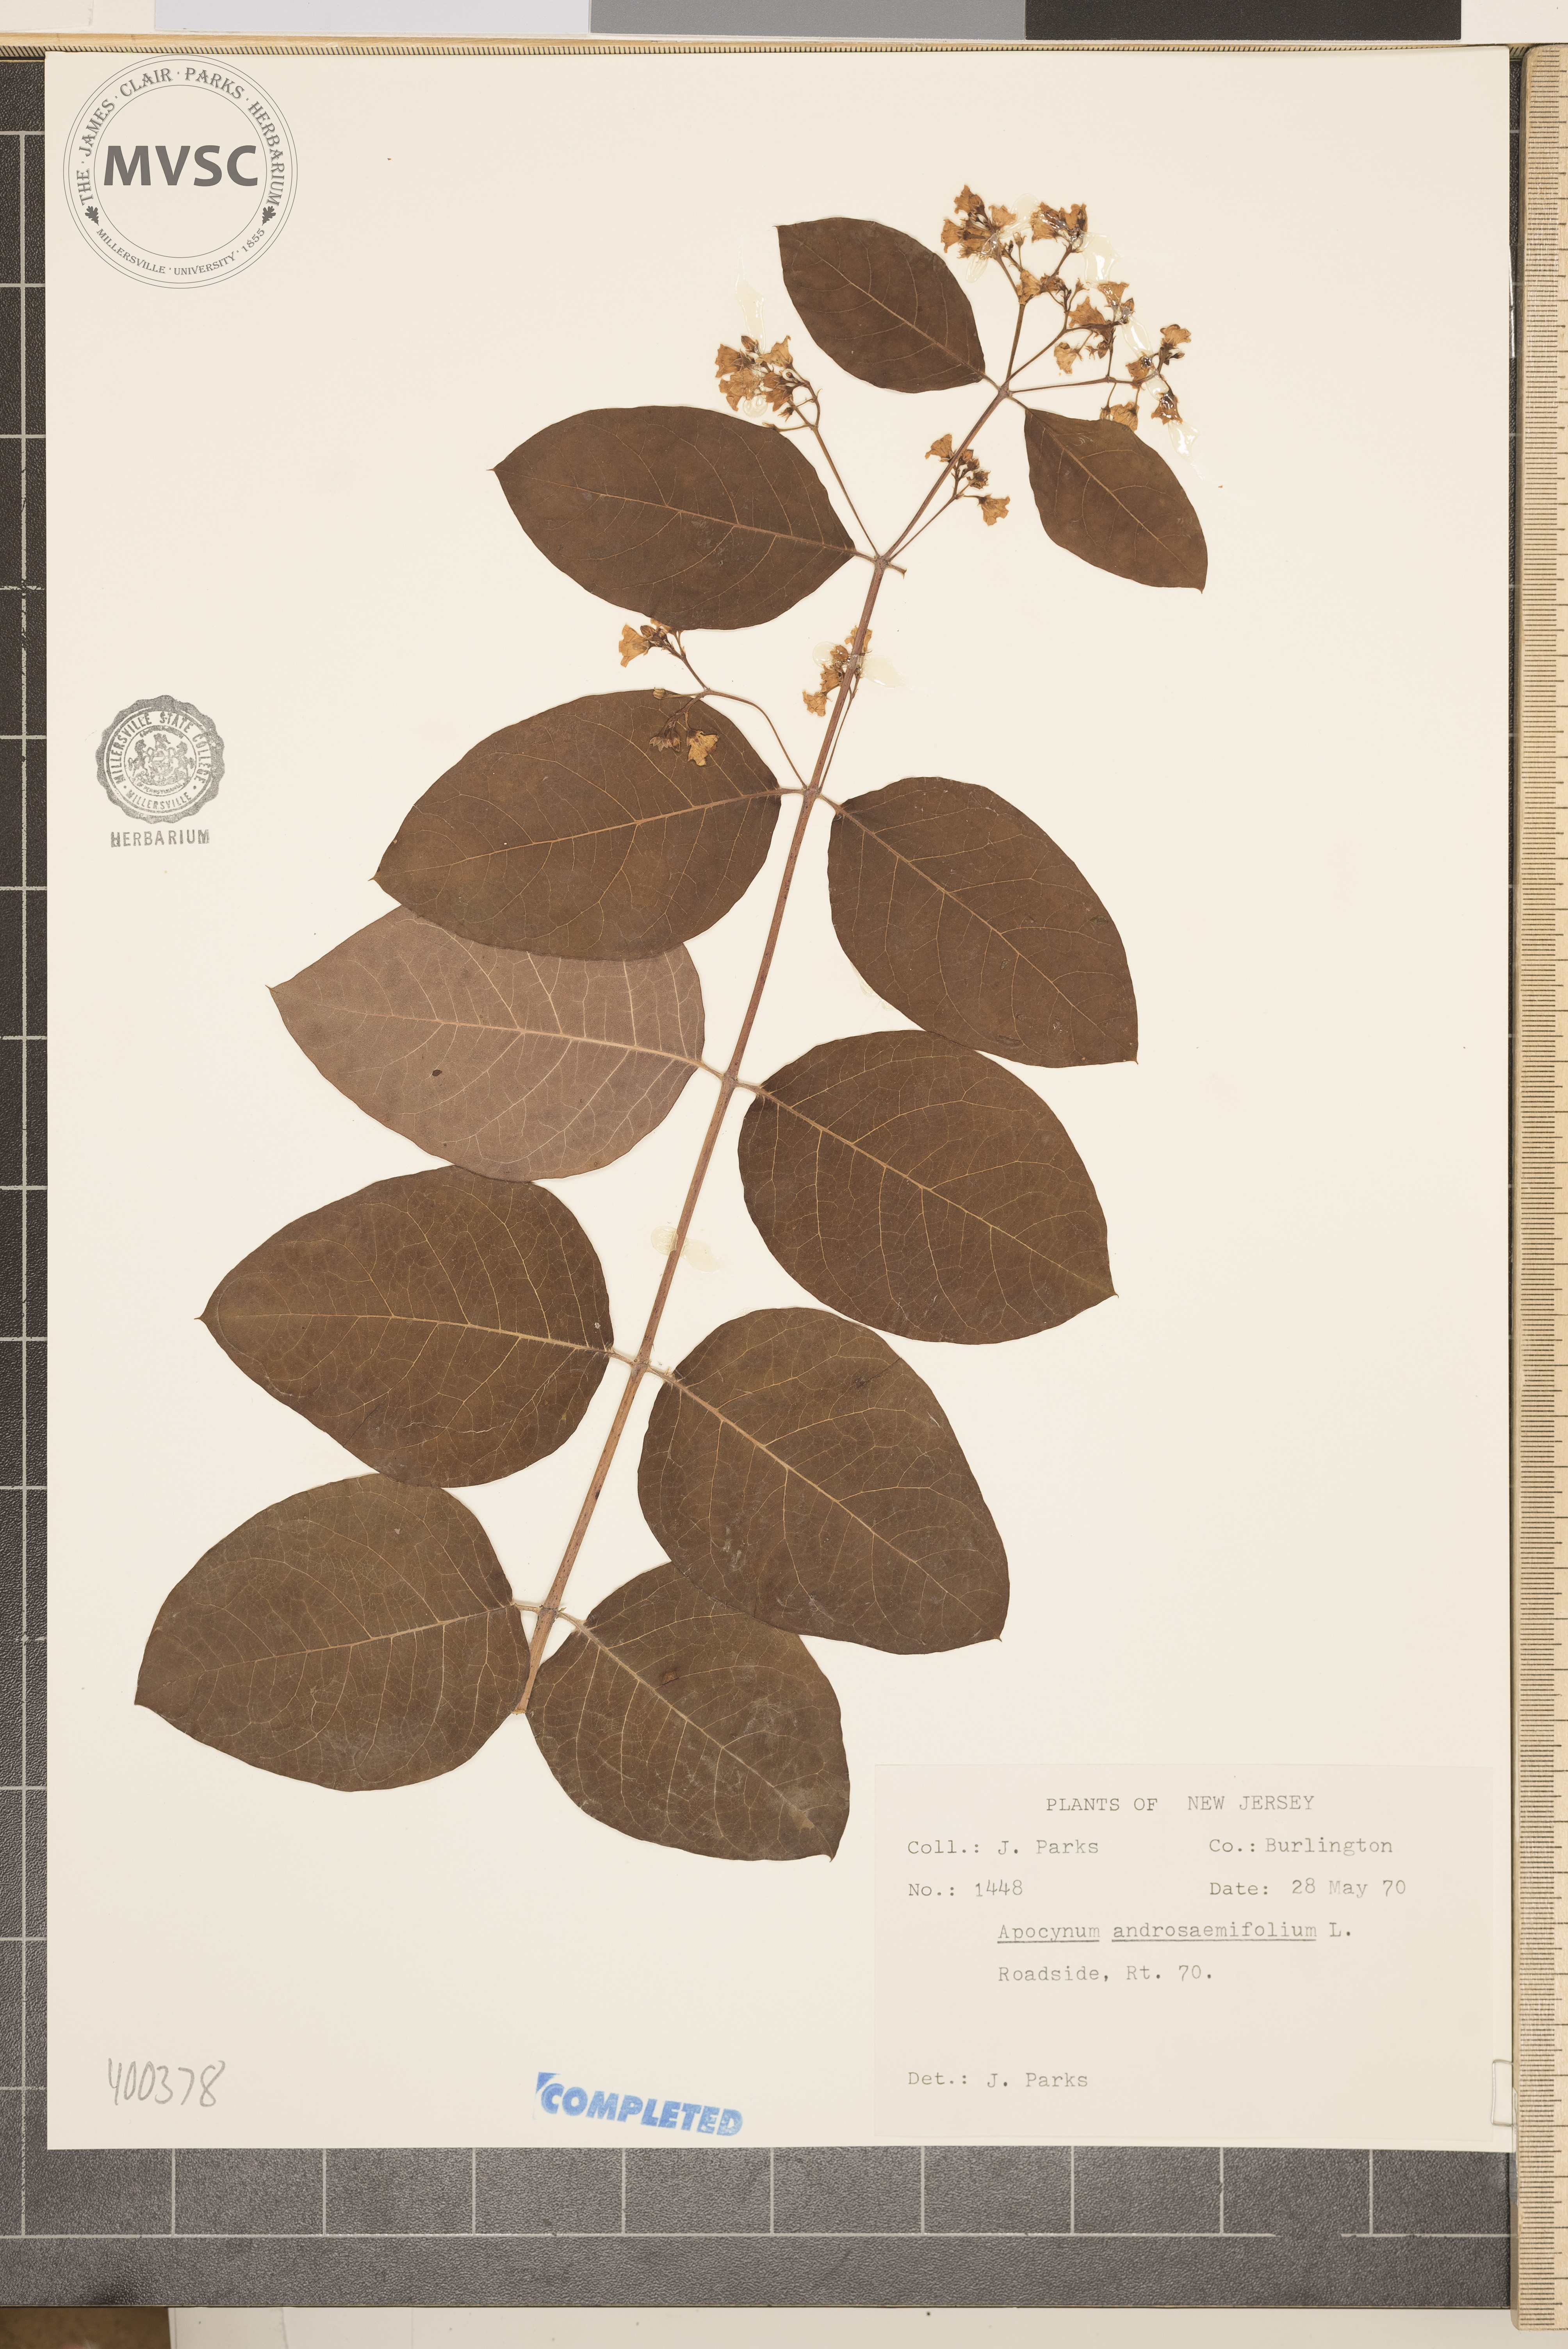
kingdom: Plantae
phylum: Tracheophyta
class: Magnoliopsida
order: Gentianales
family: Apocynaceae
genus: Apocynum
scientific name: Apocynum androsaemifolium
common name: dogbane
